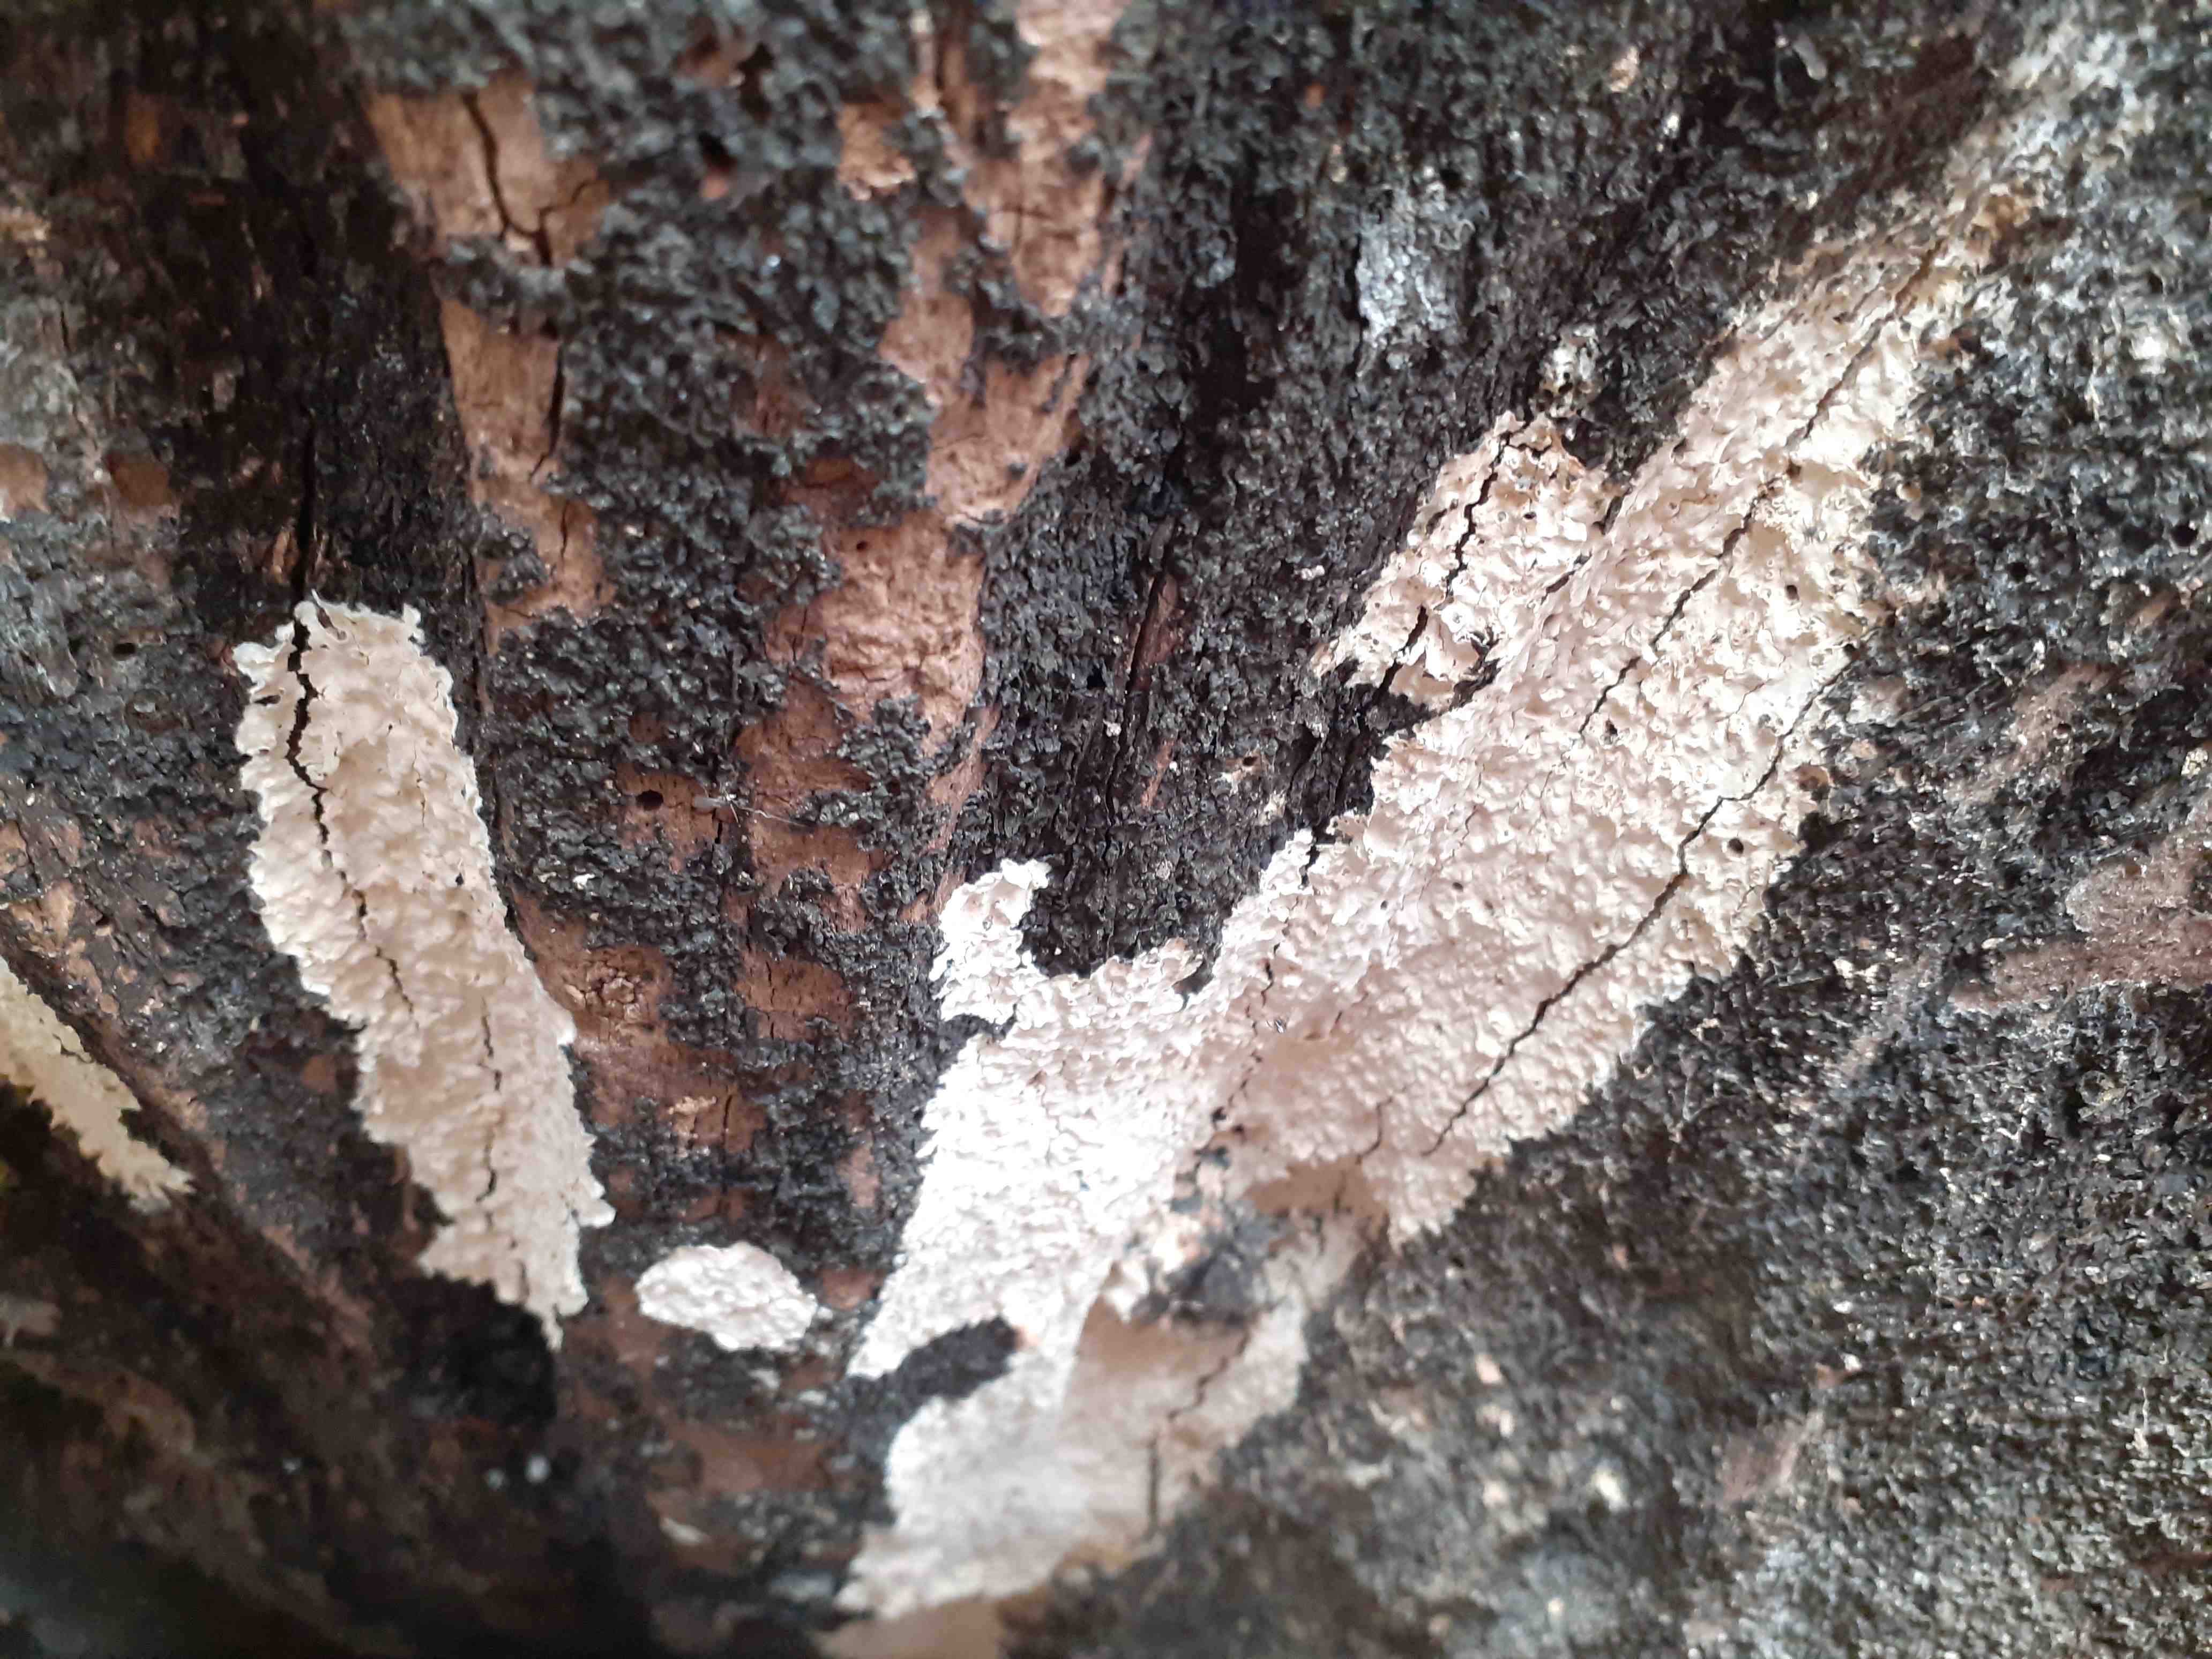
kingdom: Fungi
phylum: Basidiomycota
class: Agaricomycetes
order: Russulales
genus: Gloeohypochnicium
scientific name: Gloeohypochnicium analogum
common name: frugt-kalkskind
